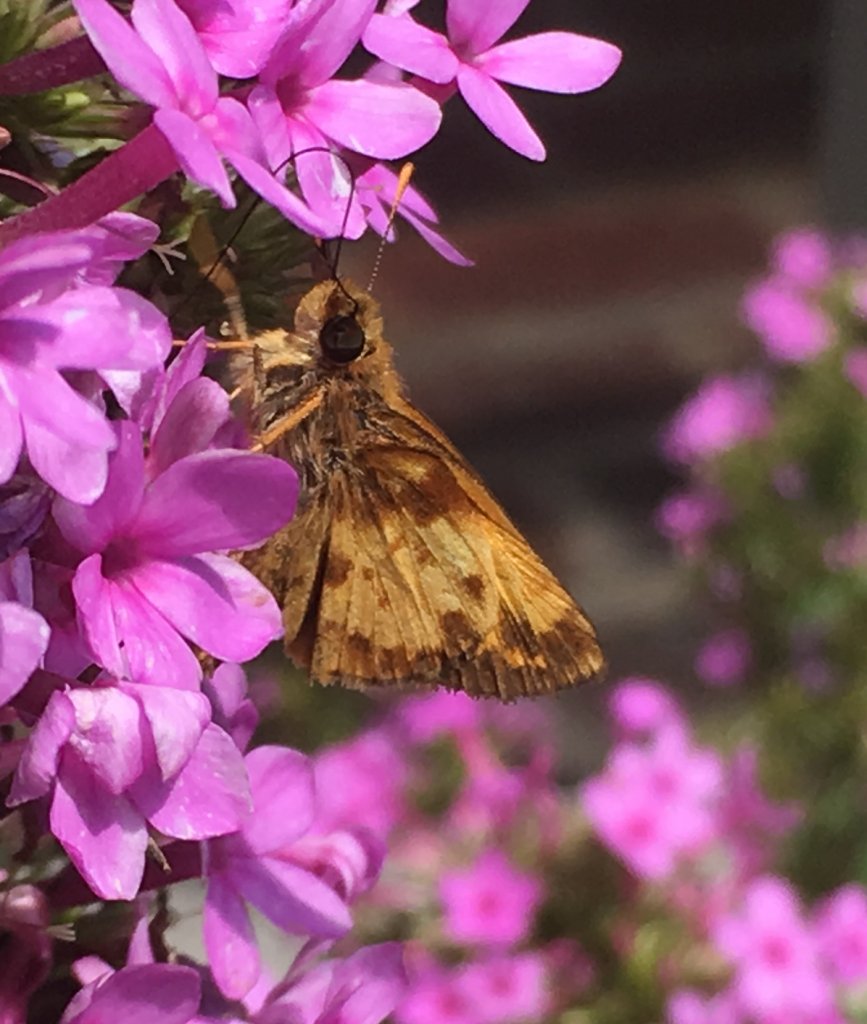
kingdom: Animalia
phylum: Arthropoda
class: Insecta
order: Lepidoptera
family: Hesperiidae
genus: Lon
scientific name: Lon zabulon
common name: Zabulon Skipper
